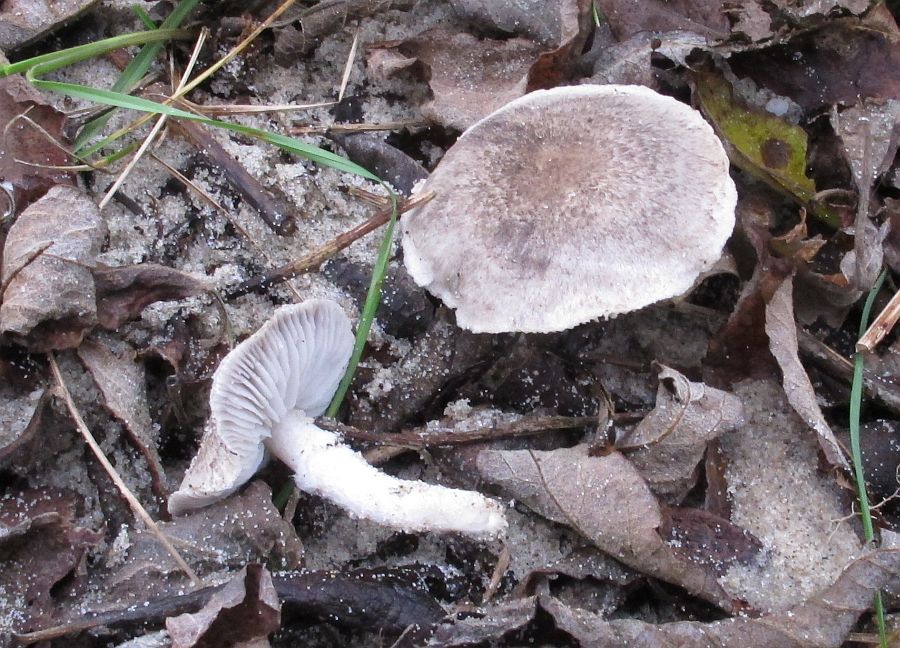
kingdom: Fungi
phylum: Basidiomycota
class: Agaricomycetes
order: Agaricales
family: Tricholomataceae
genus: Tricholoma
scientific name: Tricholoma cingulatum
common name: ring-ridderhat
